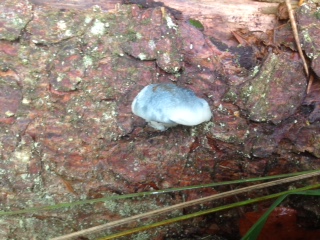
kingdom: Fungi
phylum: Basidiomycota
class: Agaricomycetes
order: Polyporales
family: Polyporaceae
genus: Cyanosporus
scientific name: Cyanosporus caesius
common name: blålig kødporesvamp
